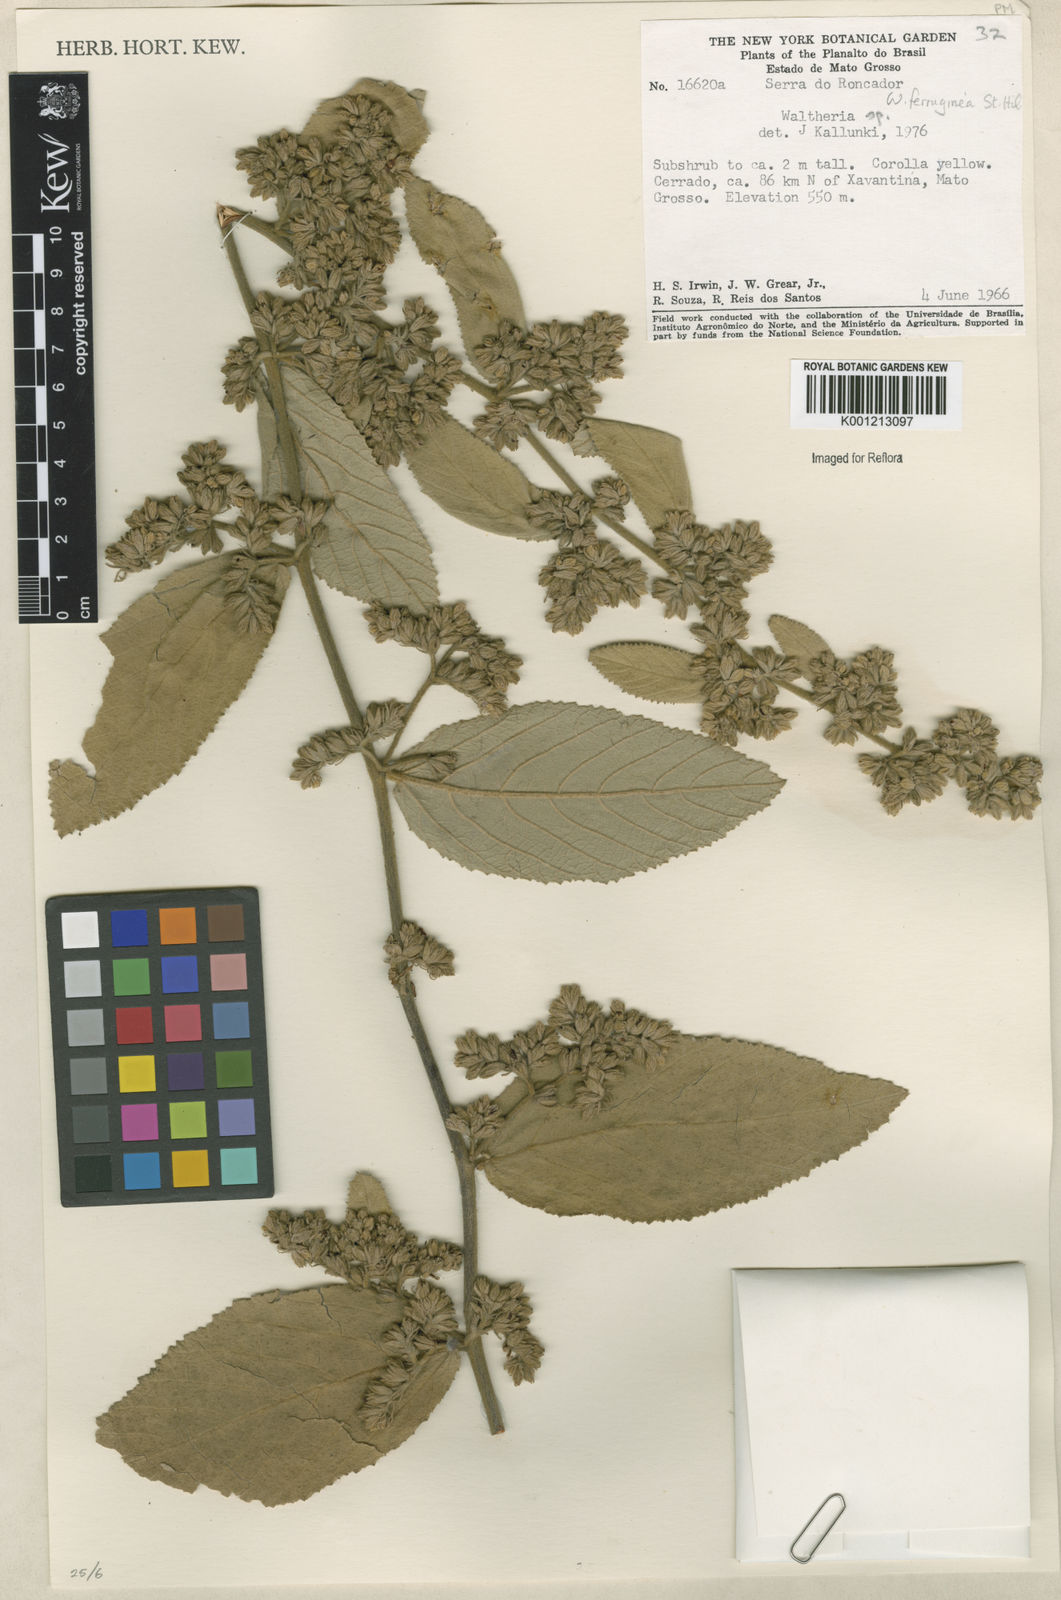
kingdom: Plantae
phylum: Tracheophyta
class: Magnoliopsida
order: Malvales
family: Malvaceae
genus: Waltheria
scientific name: Waltheria ferruginea
